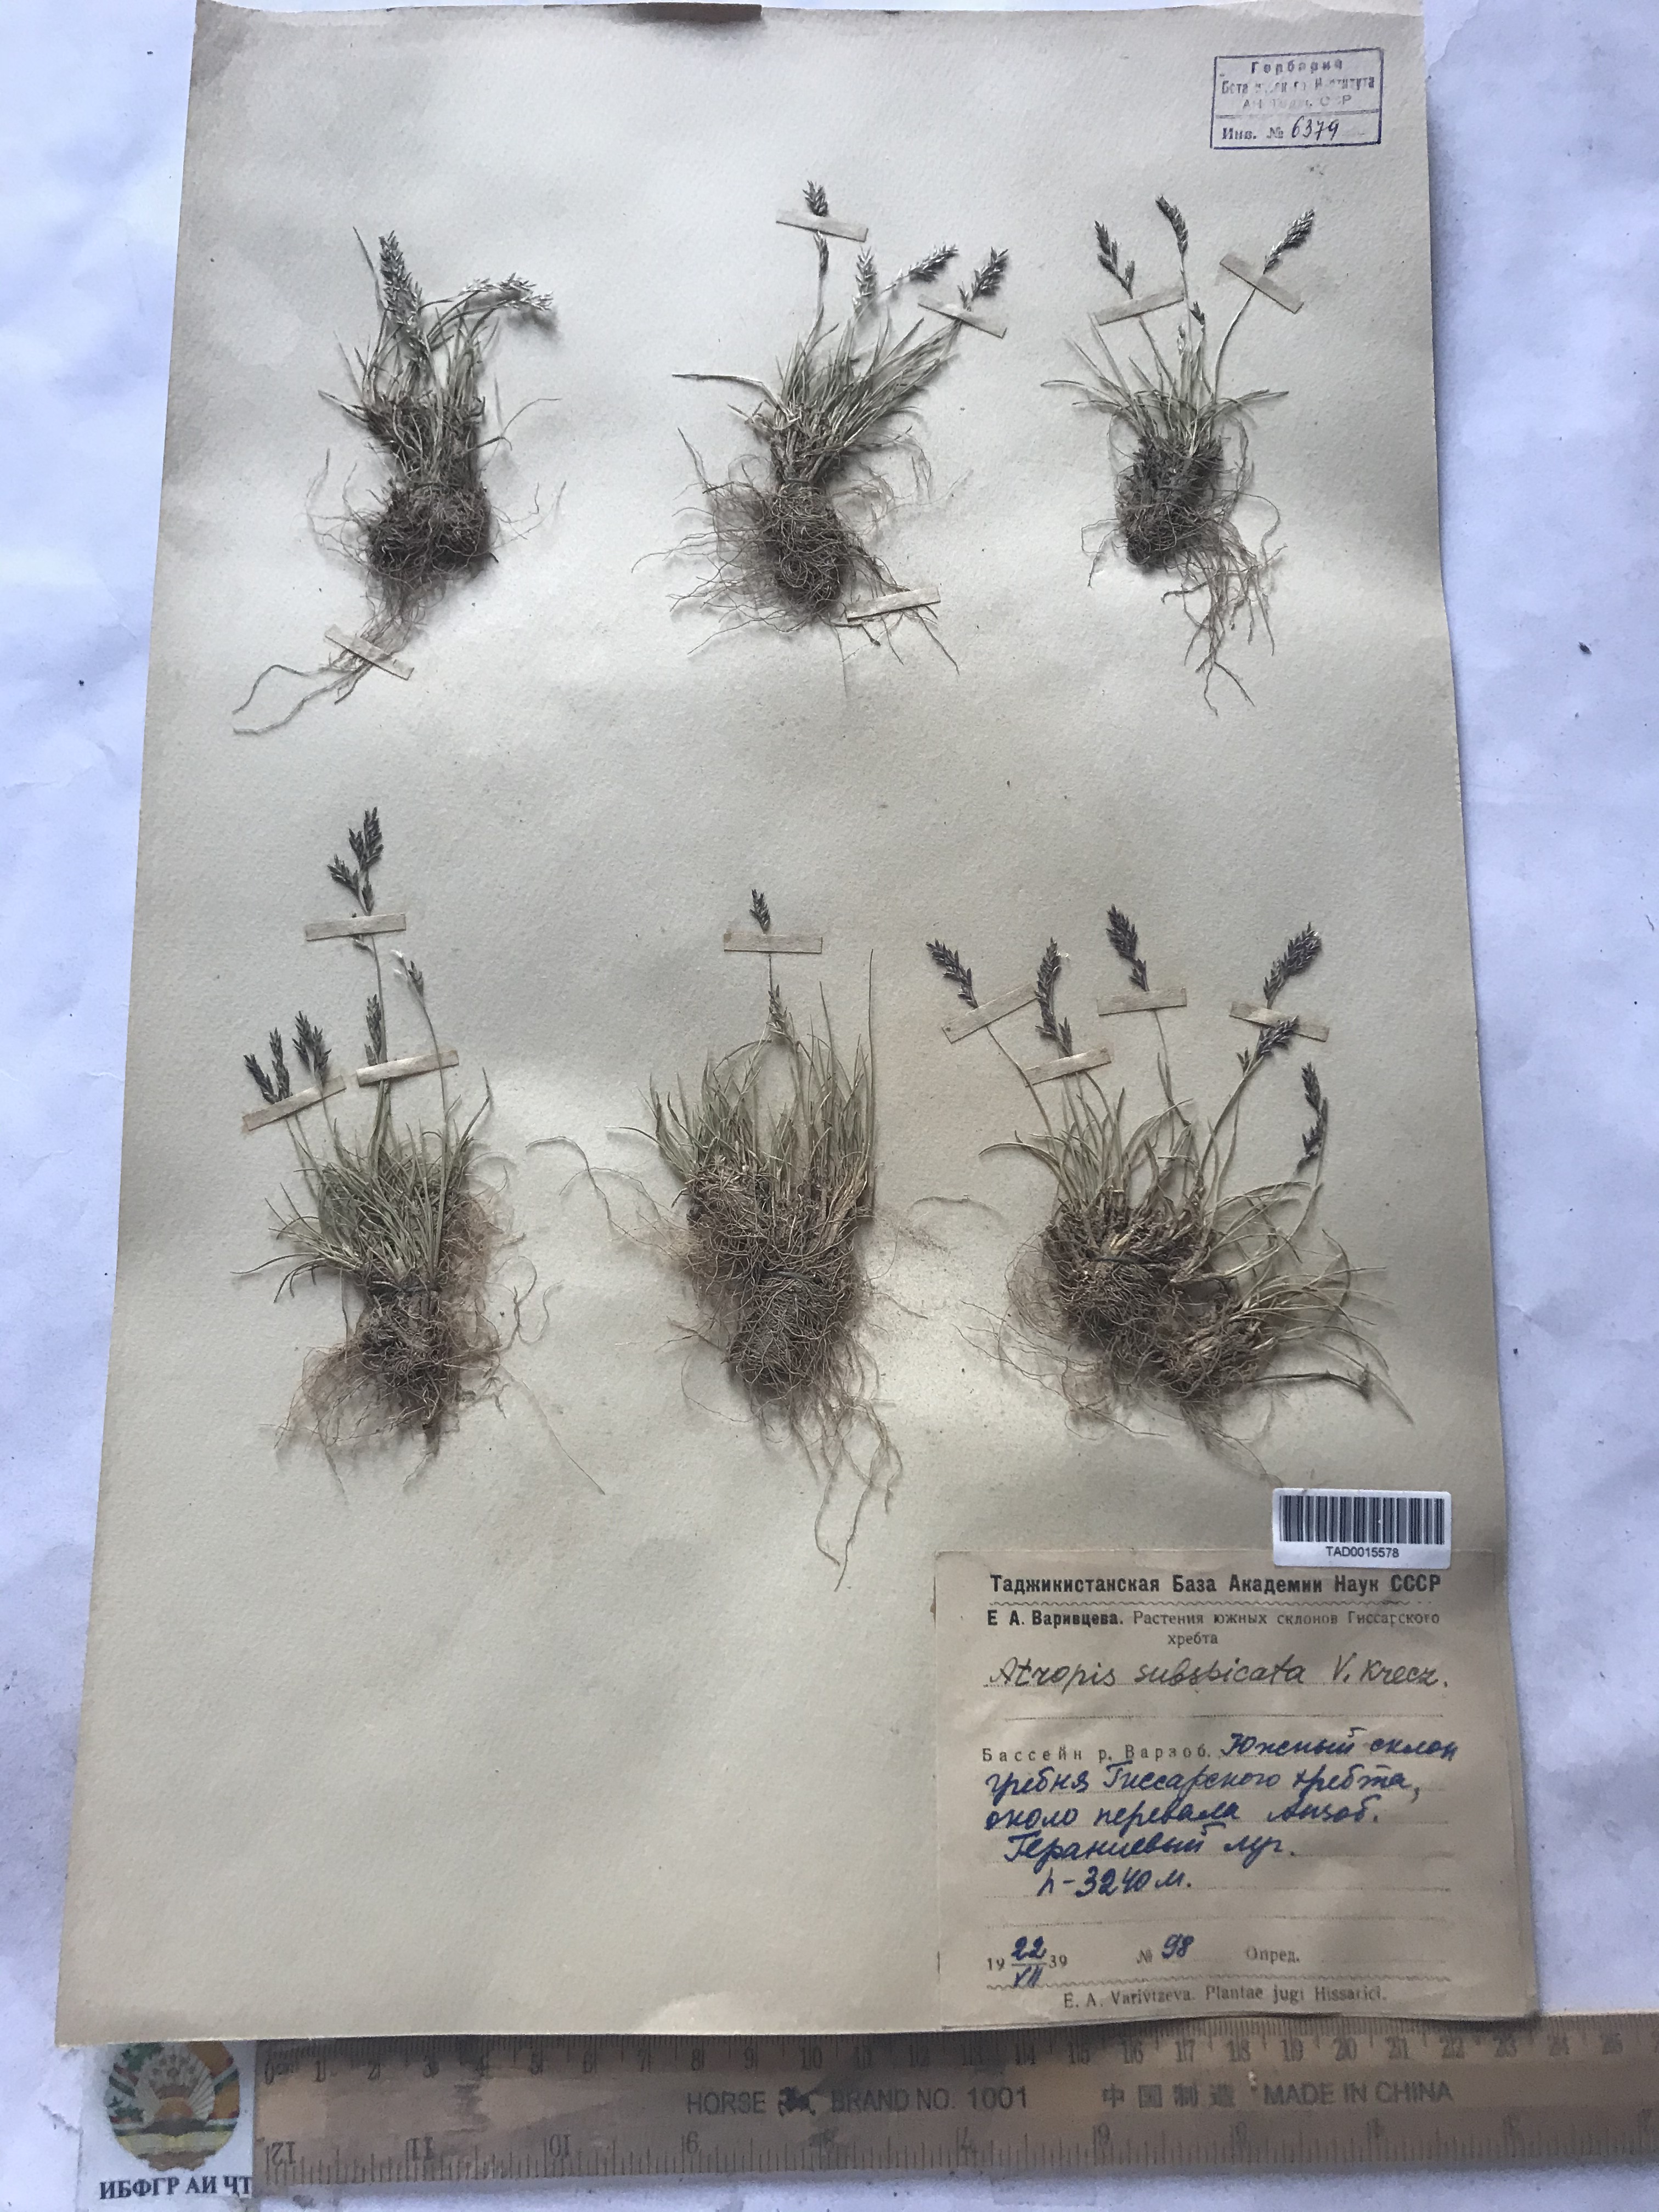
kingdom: Plantae
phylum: Tracheophyta
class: Liliopsida
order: Poales
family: Poaceae
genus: Puccinellia
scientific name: Puccinellia subspicata
